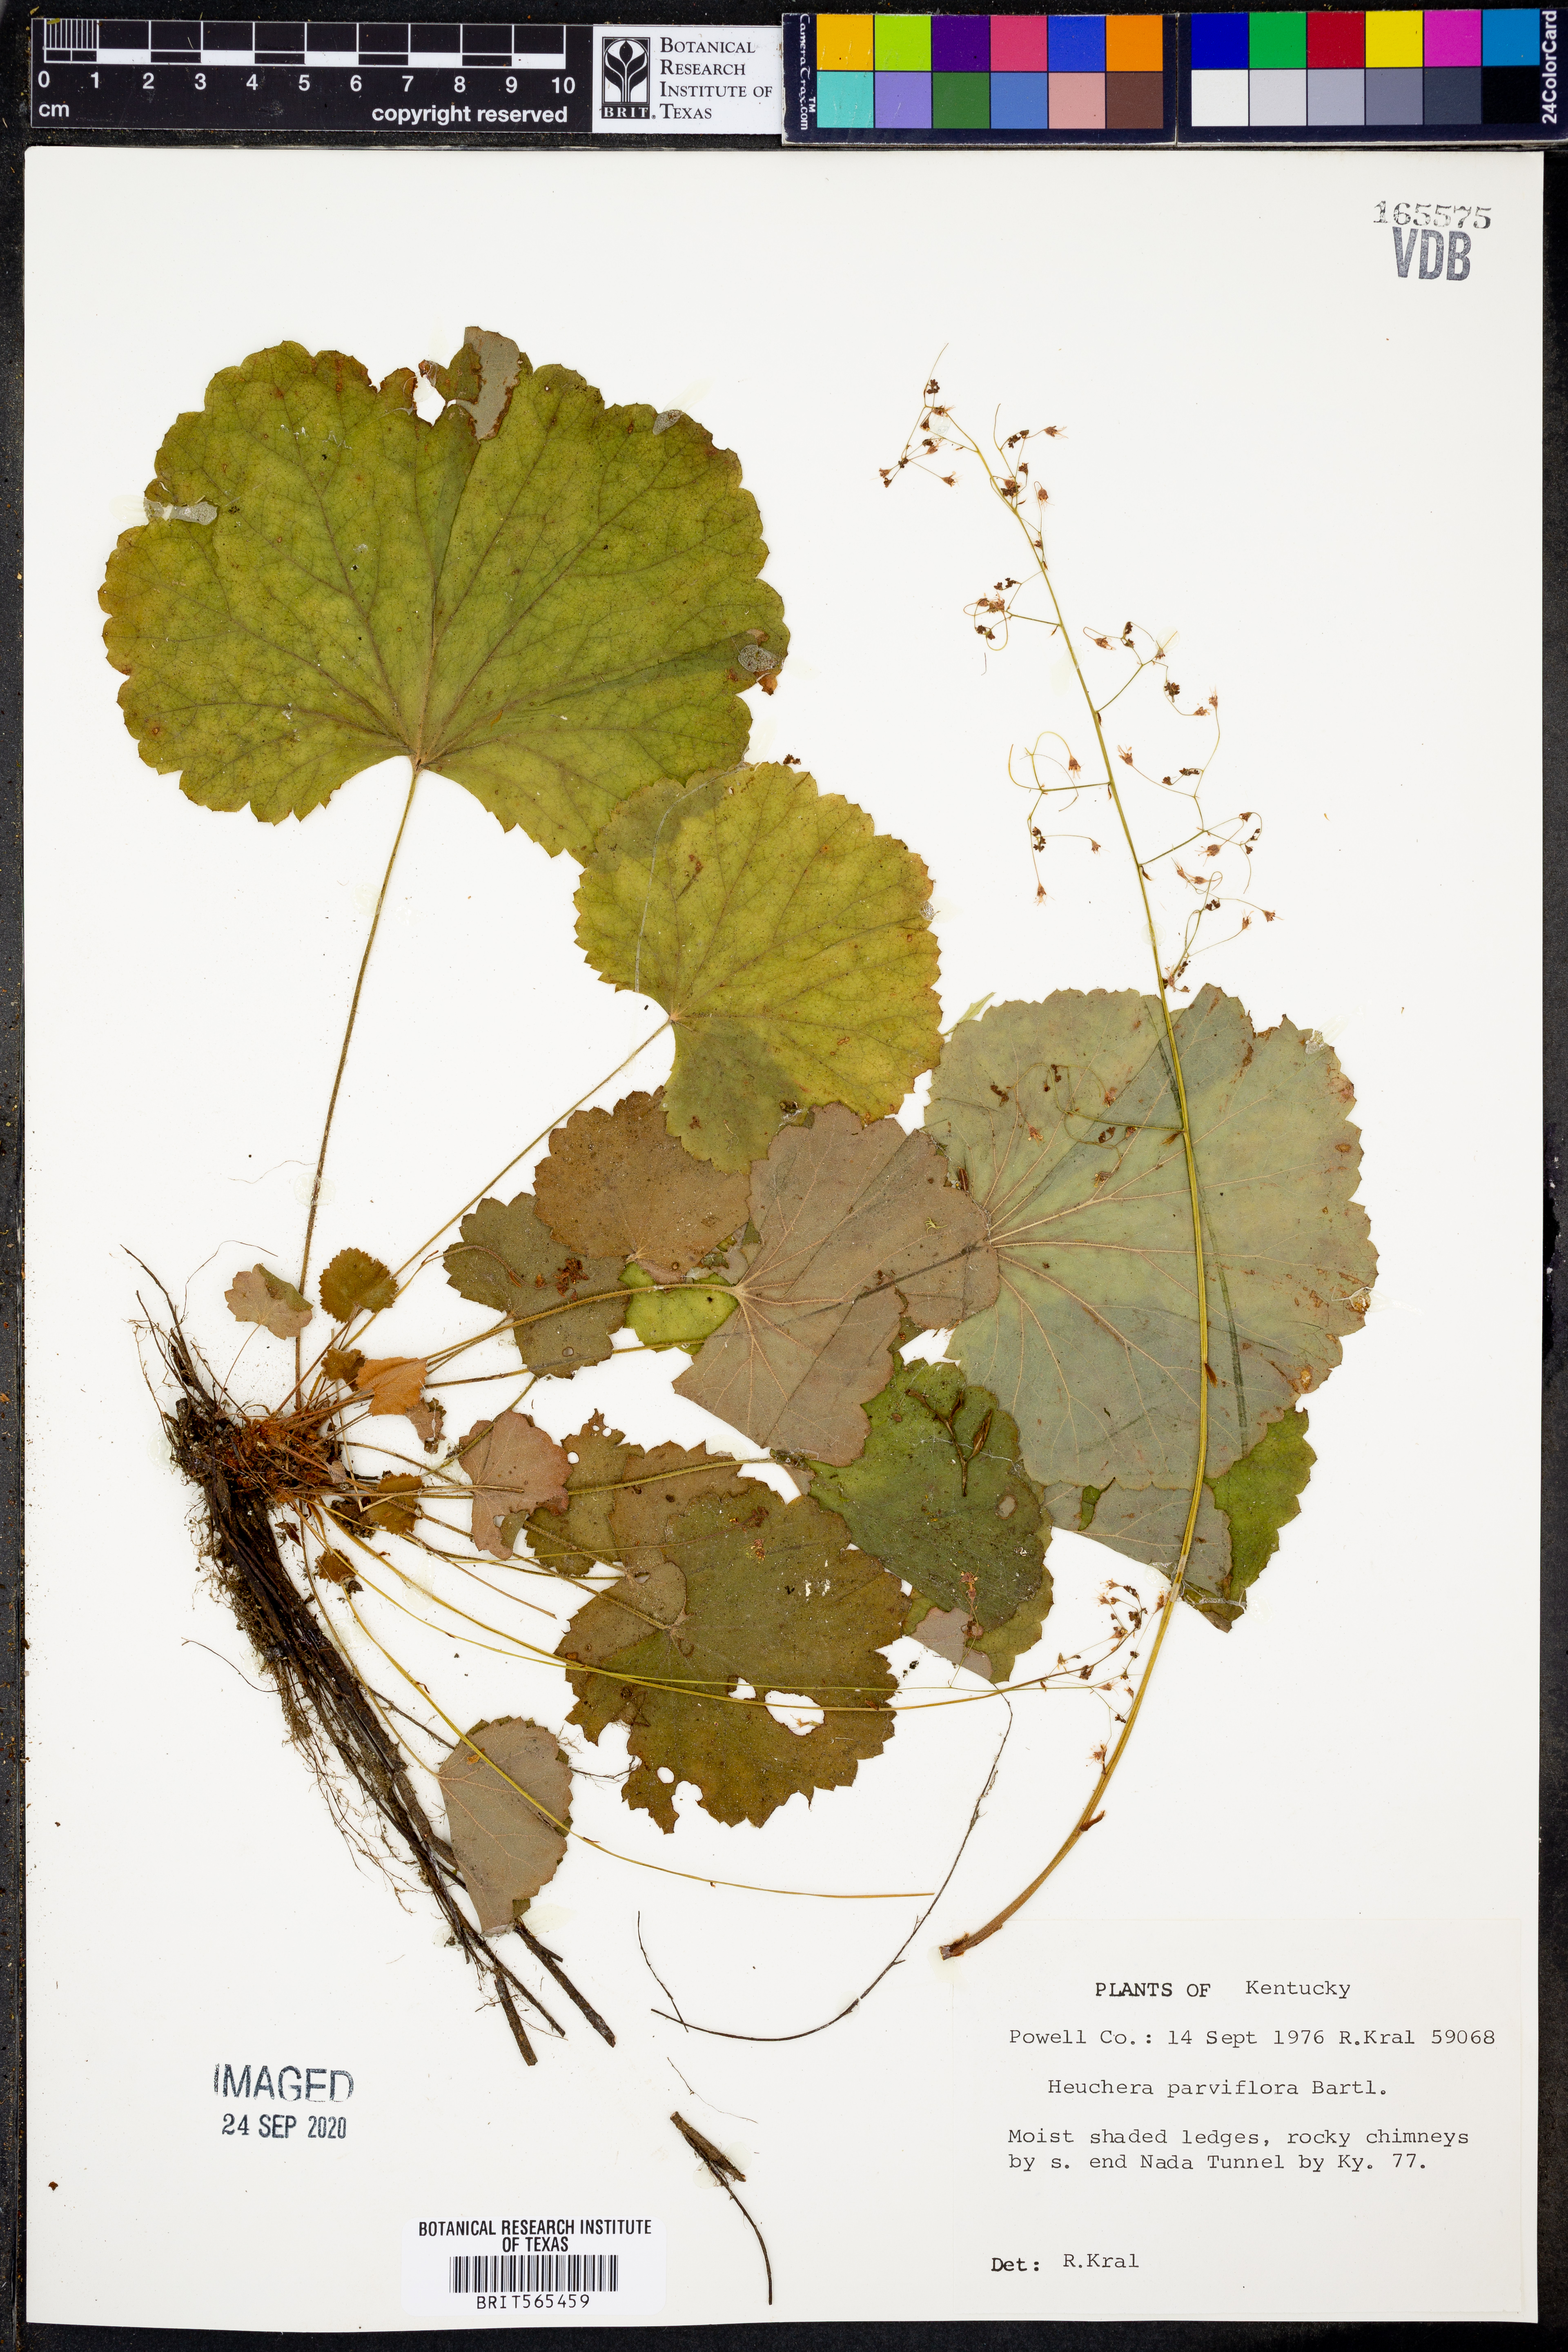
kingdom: Plantae
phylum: Tracheophyta
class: Magnoliopsida
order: Saxifragales
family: Saxifragaceae
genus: Heuchera
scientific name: Heuchera parviflora
